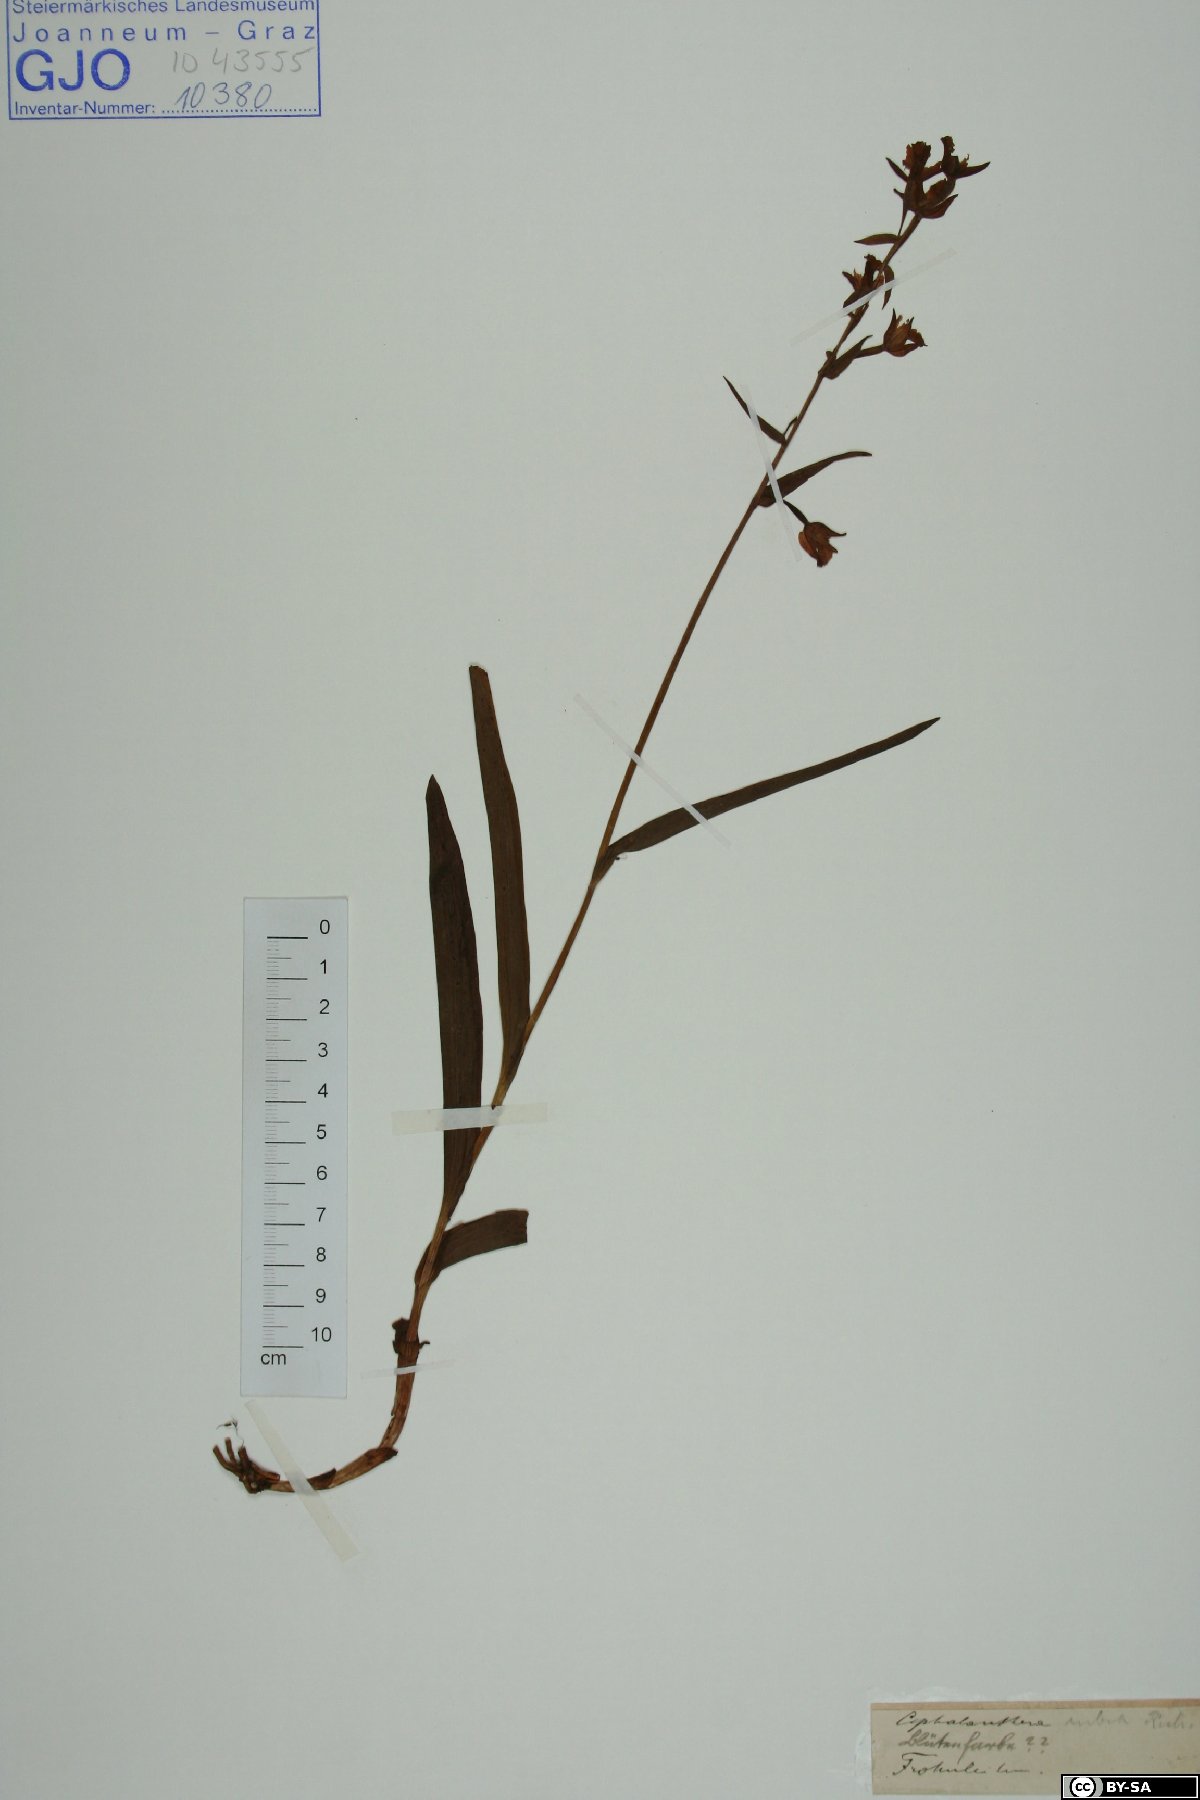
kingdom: Plantae
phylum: Tracheophyta
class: Liliopsida
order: Asparagales
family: Orchidaceae
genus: Cephalanthera
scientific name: Cephalanthera rubra
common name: Red helleborine
